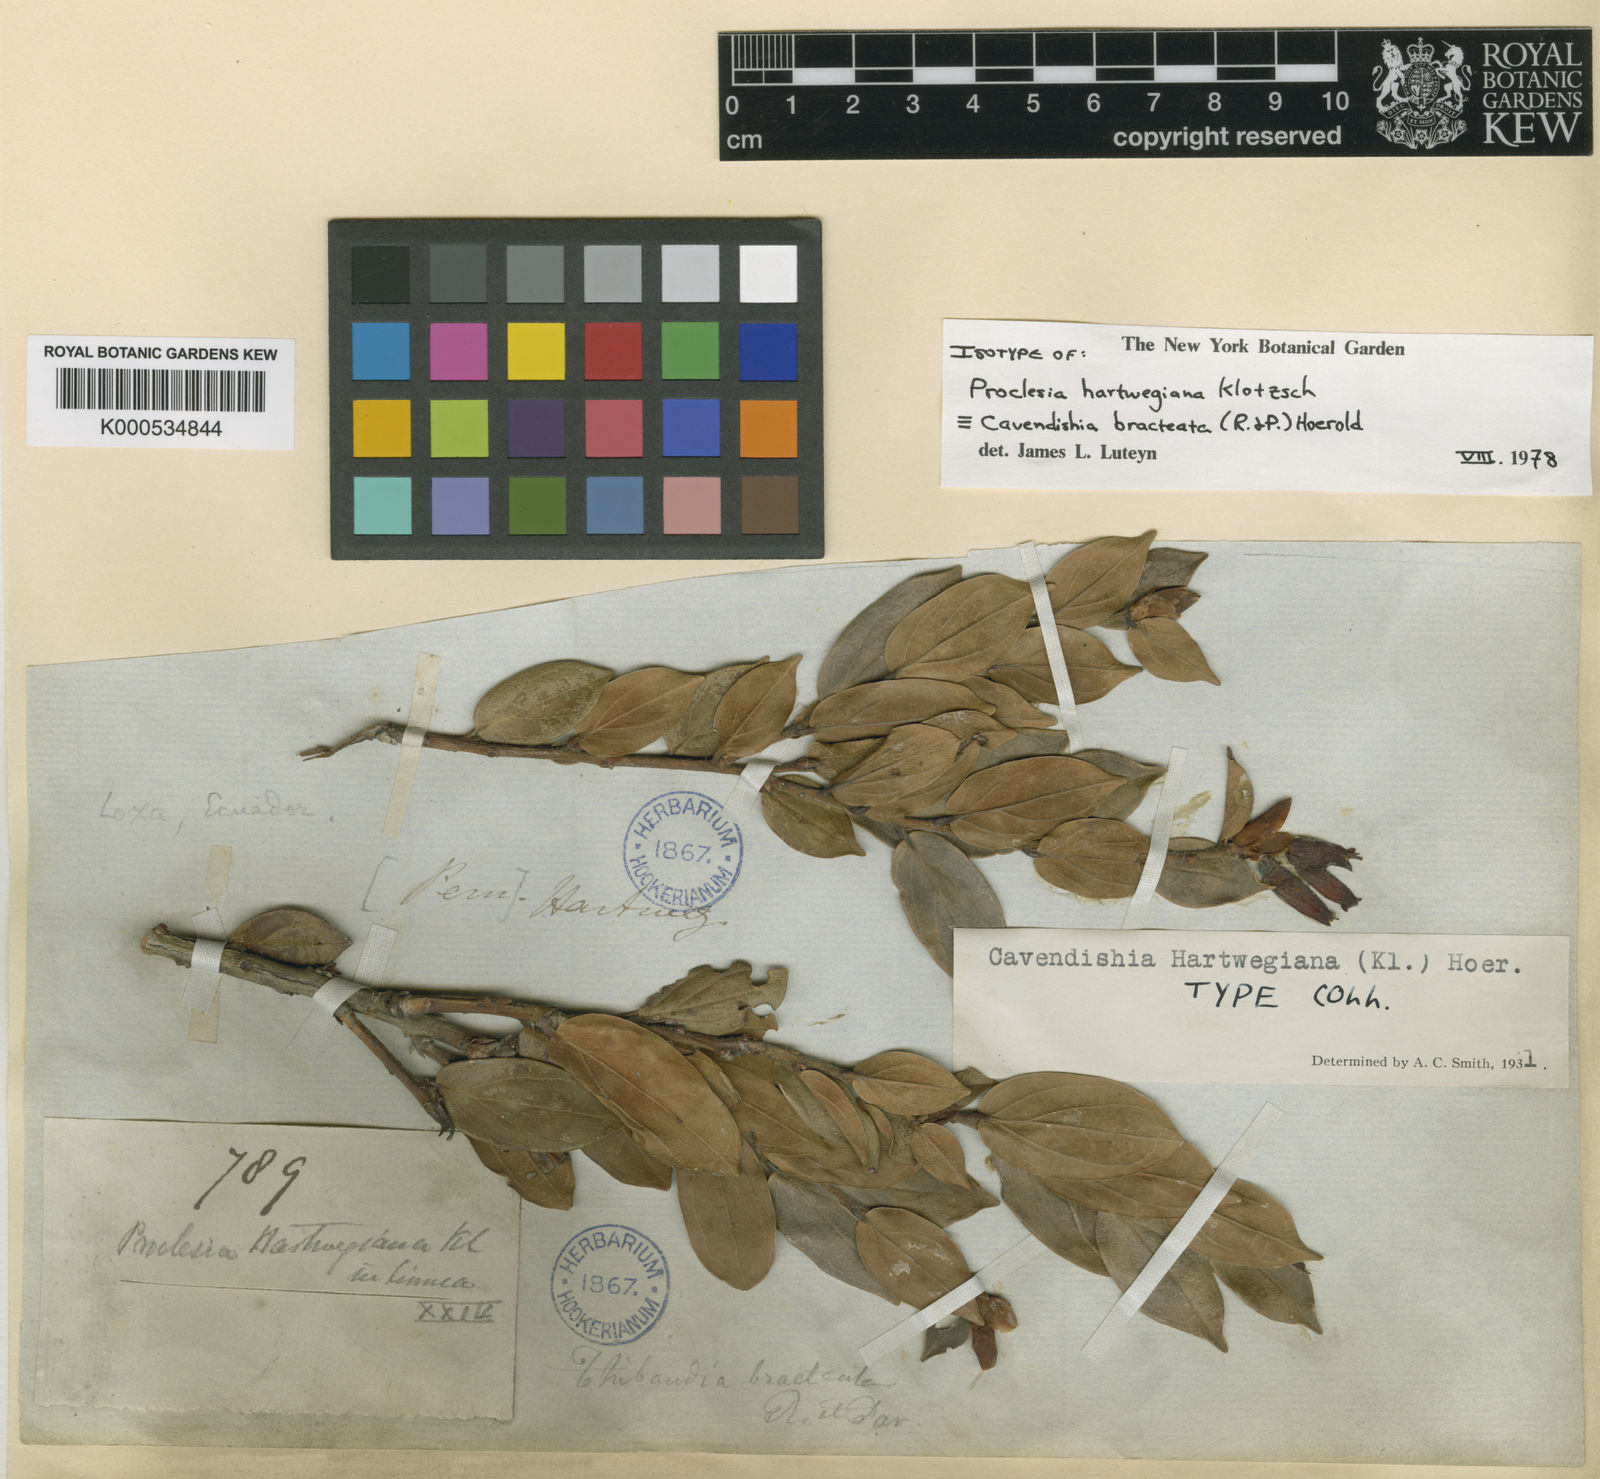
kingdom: Plantae
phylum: Tracheophyta
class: Magnoliopsida
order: Ericales
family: Ericaceae
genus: Cavendishia
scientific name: Cavendishia bracteata
